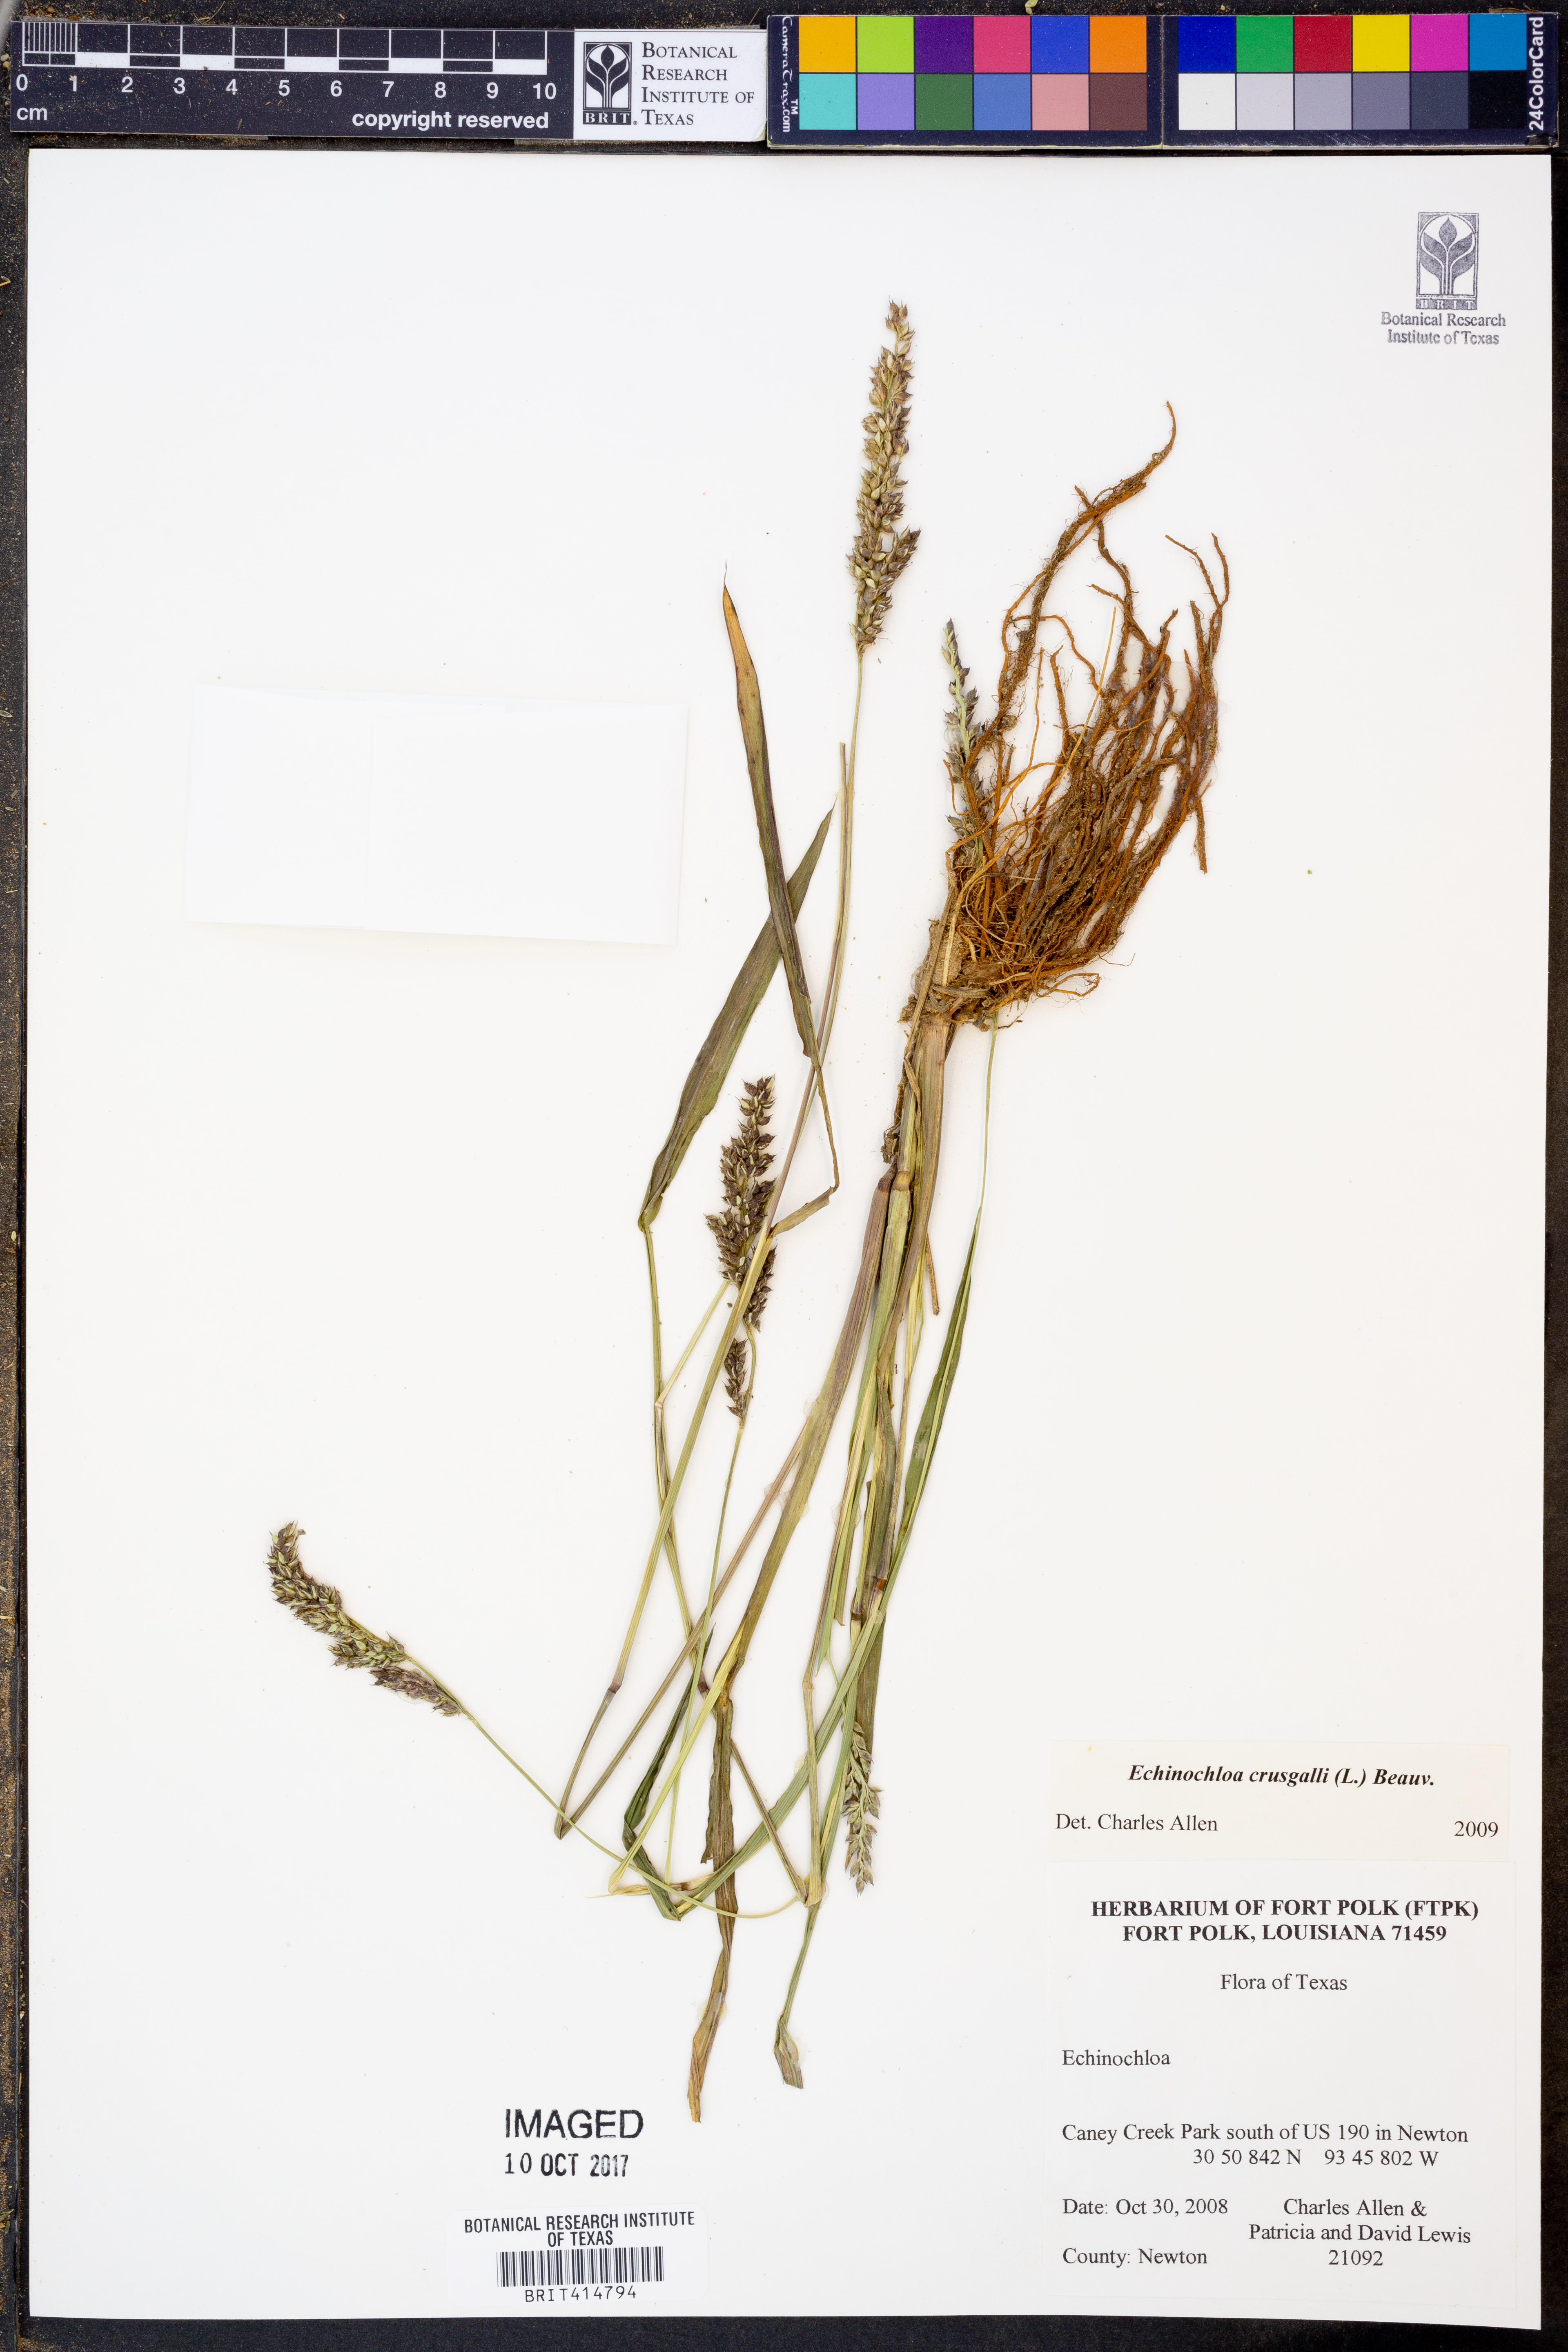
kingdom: Plantae
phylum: Tracheophyta
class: Liliopsida
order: Poales
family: Poaceae
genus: Echinochloa
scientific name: Echinochloa
